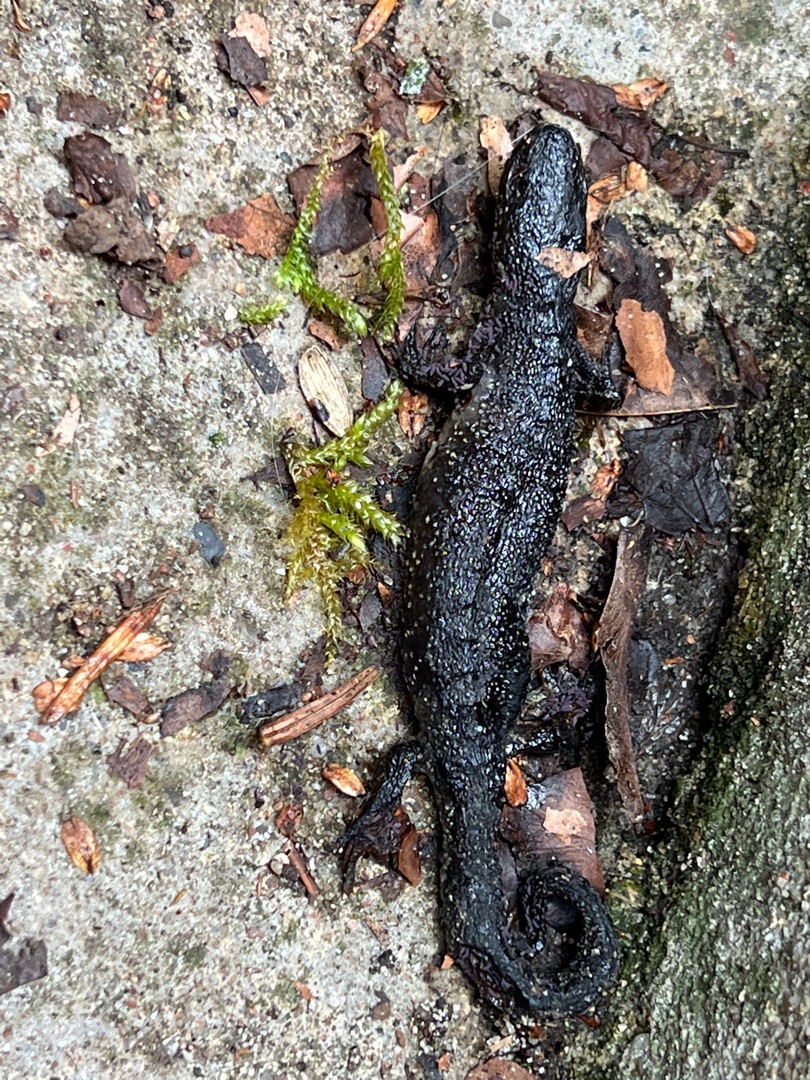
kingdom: Animalia
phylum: Chordata
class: Amphibia
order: Caudata
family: Salamandridae
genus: Triturus
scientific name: Triturus cristatus
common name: Stor vandsalamander
